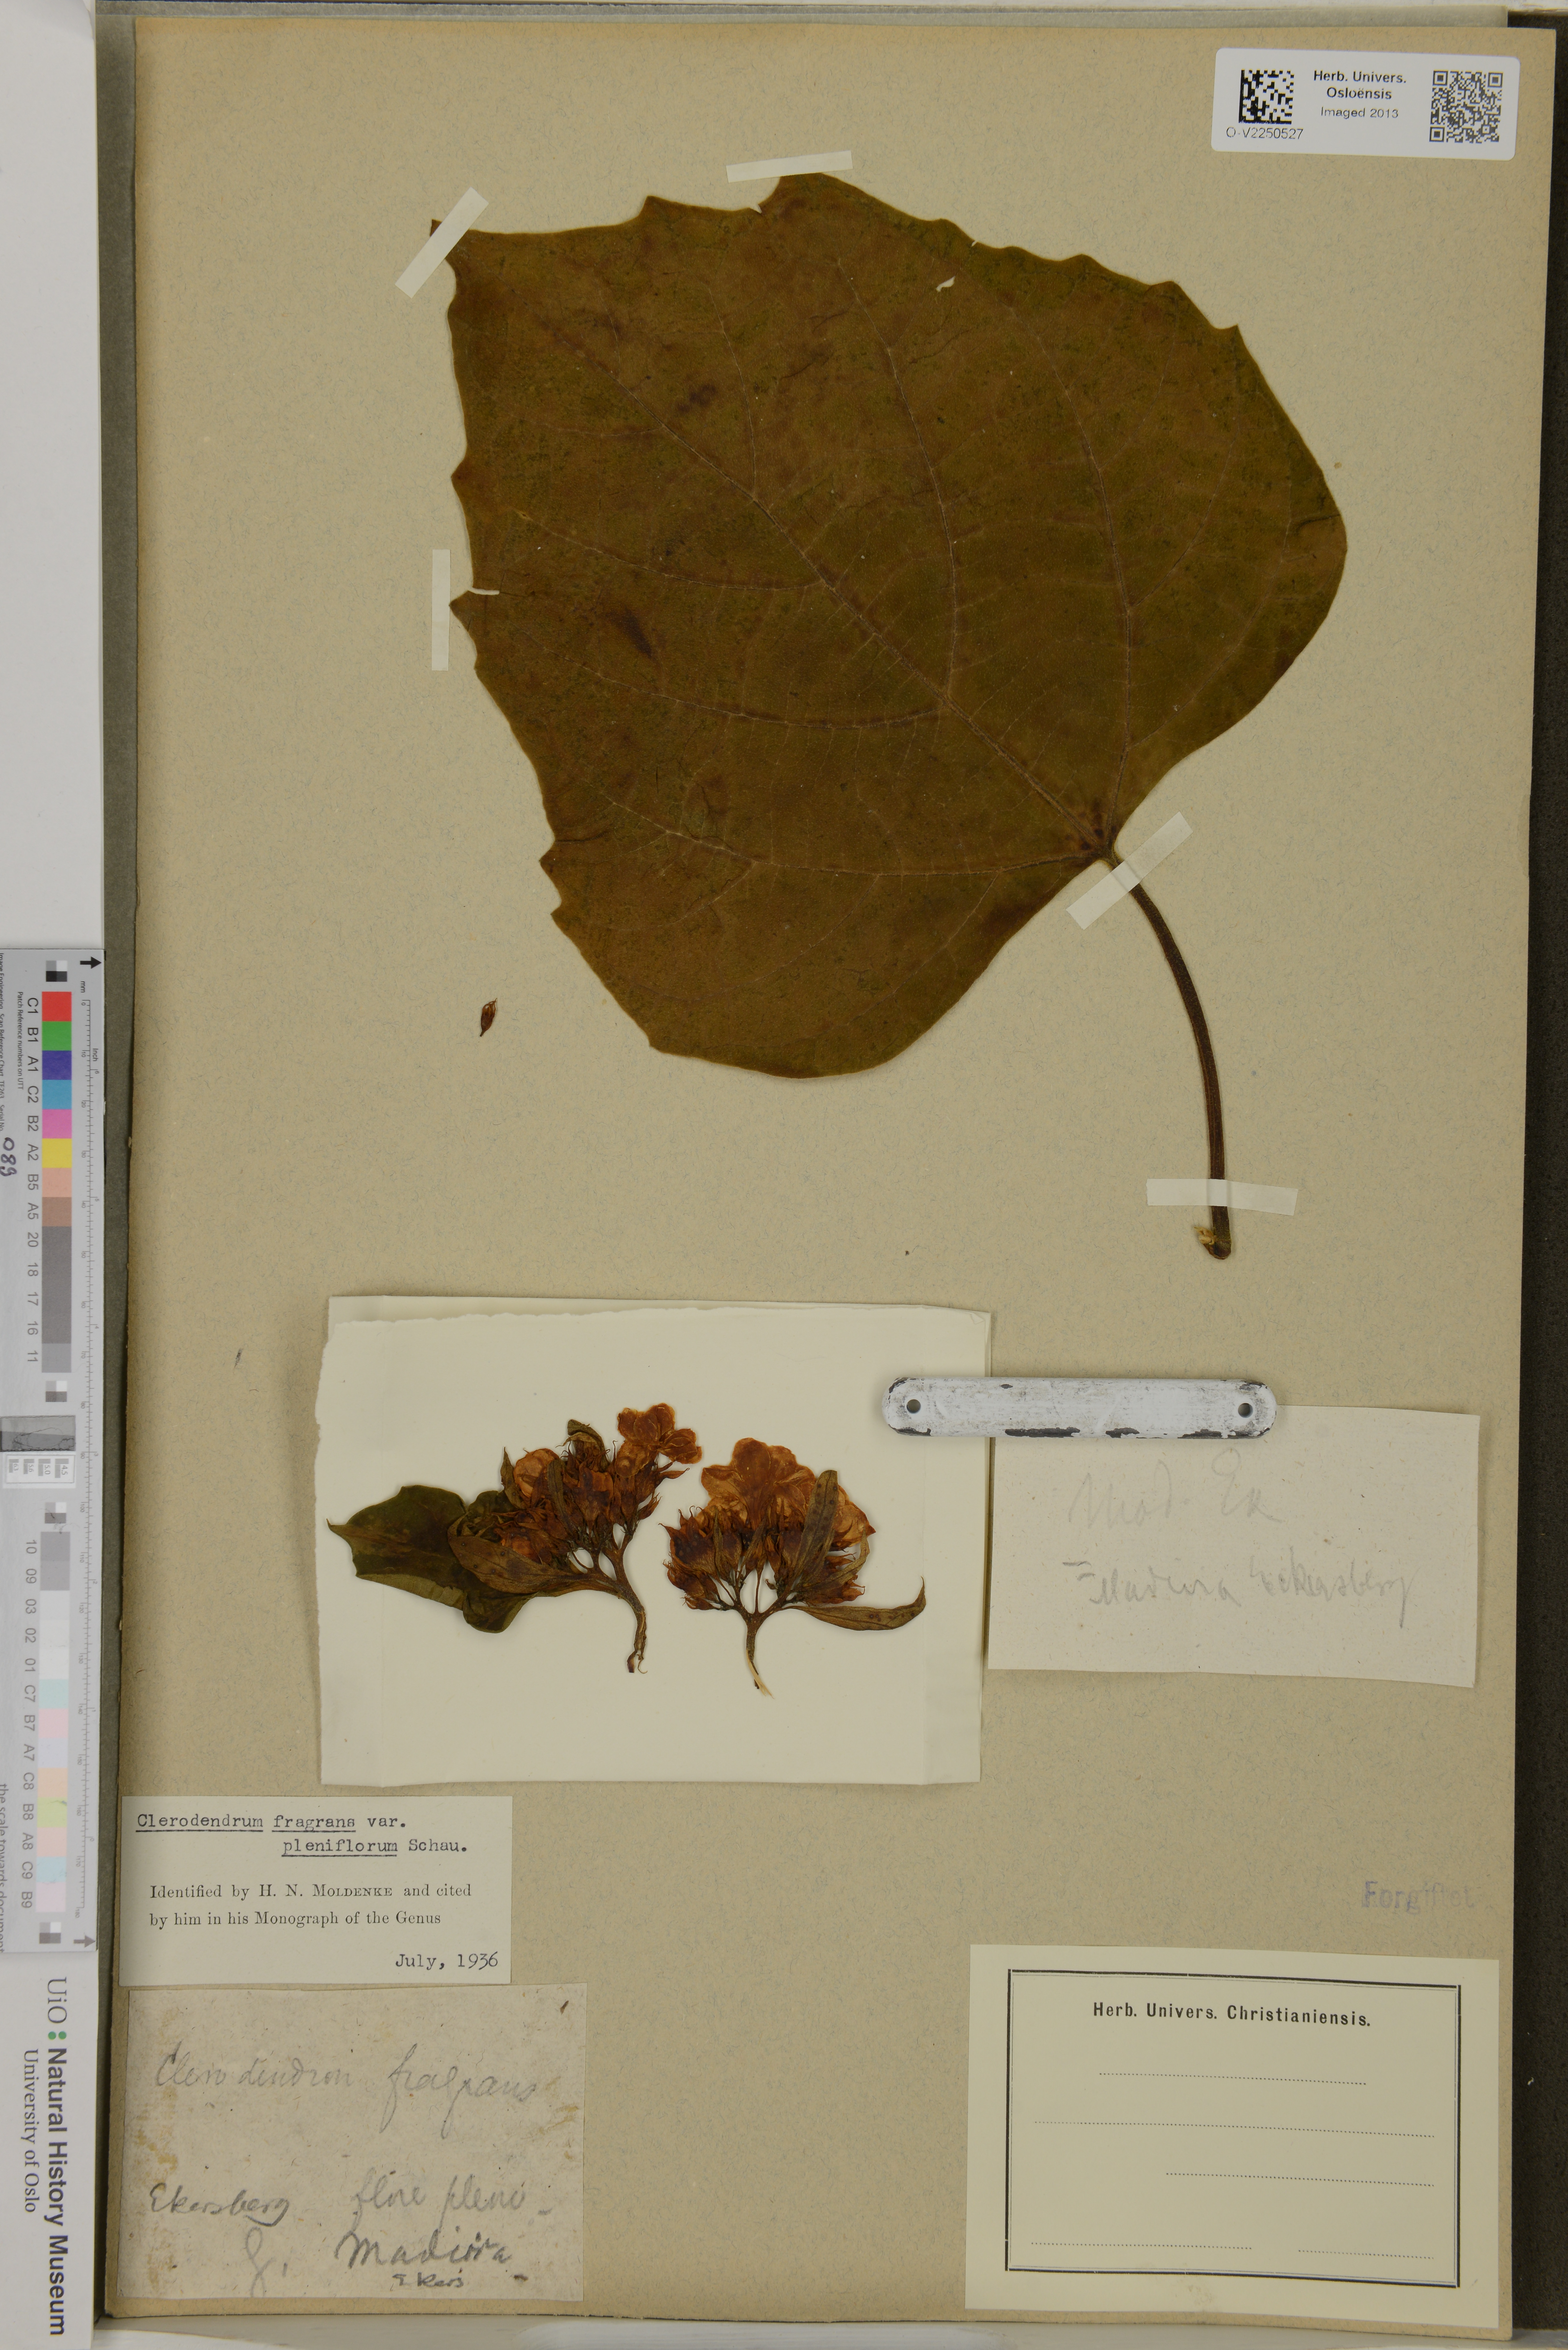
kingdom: Plantae
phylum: Tracheophyta
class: Magnoliopsida
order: Lamiales
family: Lamiaceae
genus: Clerodendrum
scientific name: Clerodendrum fragrans
